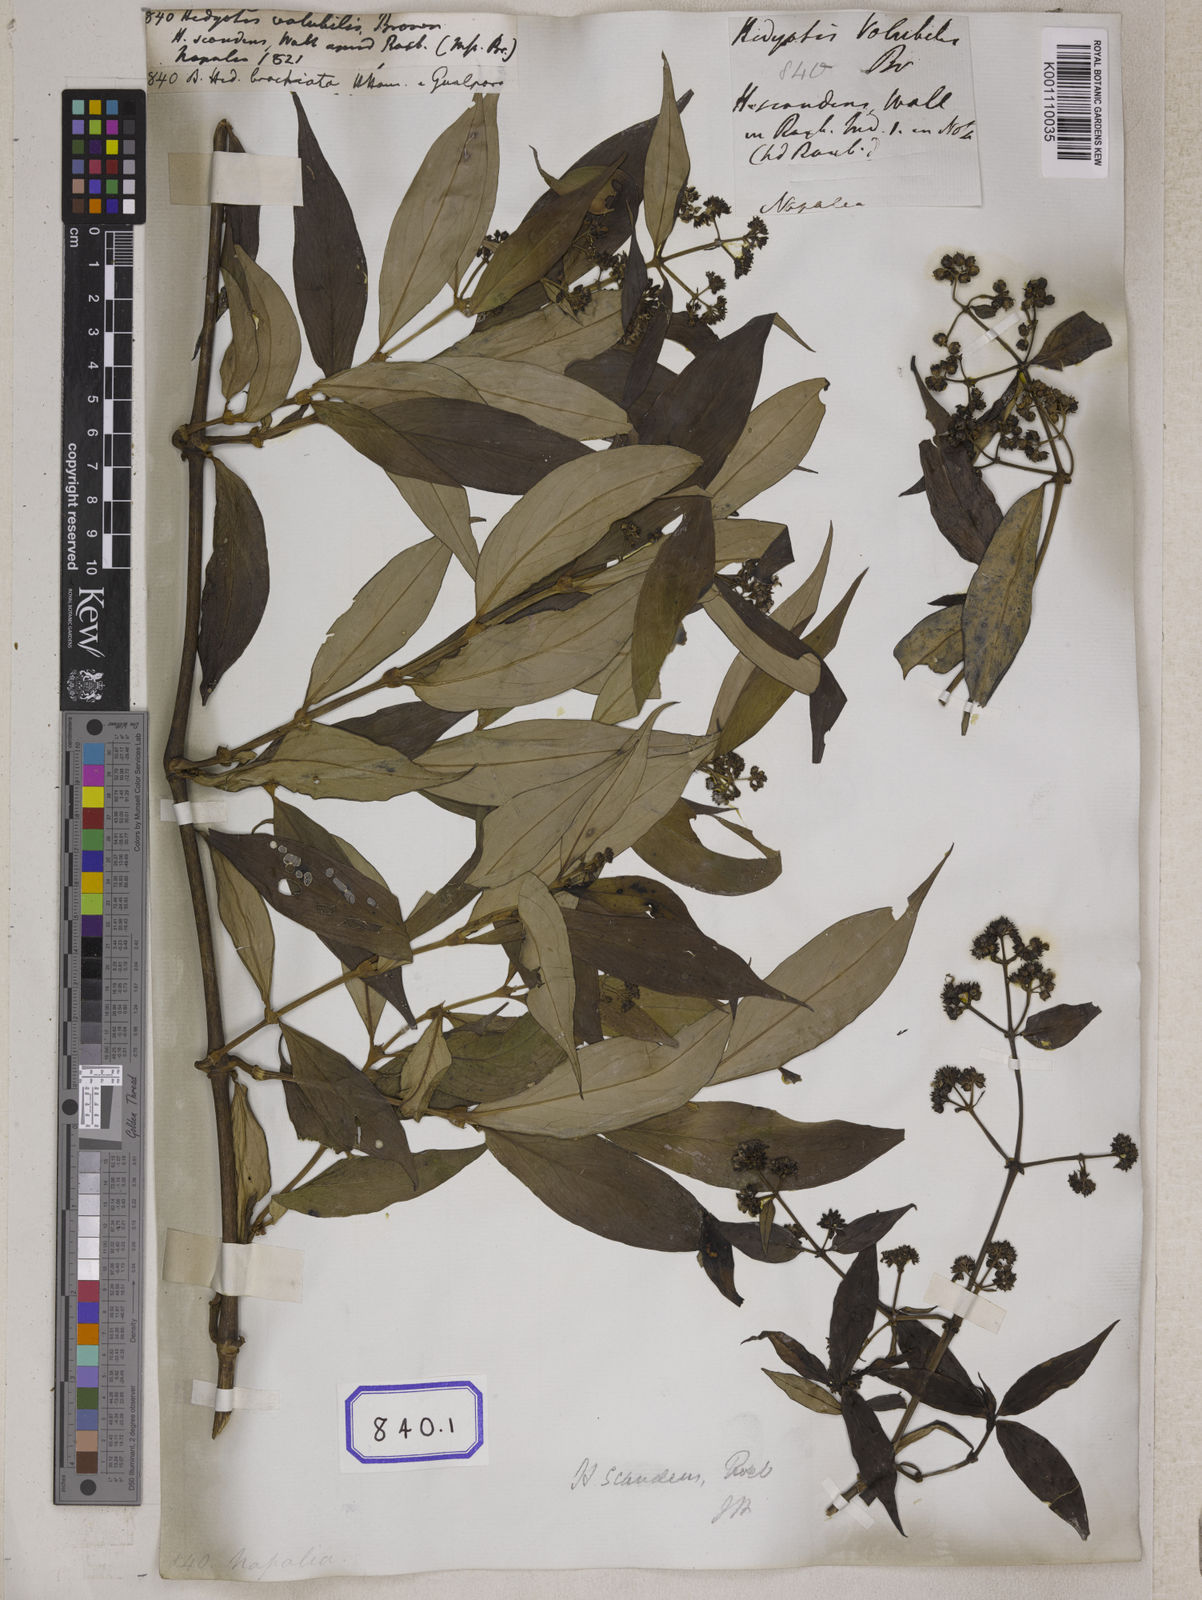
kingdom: Plantae
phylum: Tracheophyta
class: Magnoliopsida
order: Gentianales
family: Rubiaceae
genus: Hedyotis
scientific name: Hedyotis
